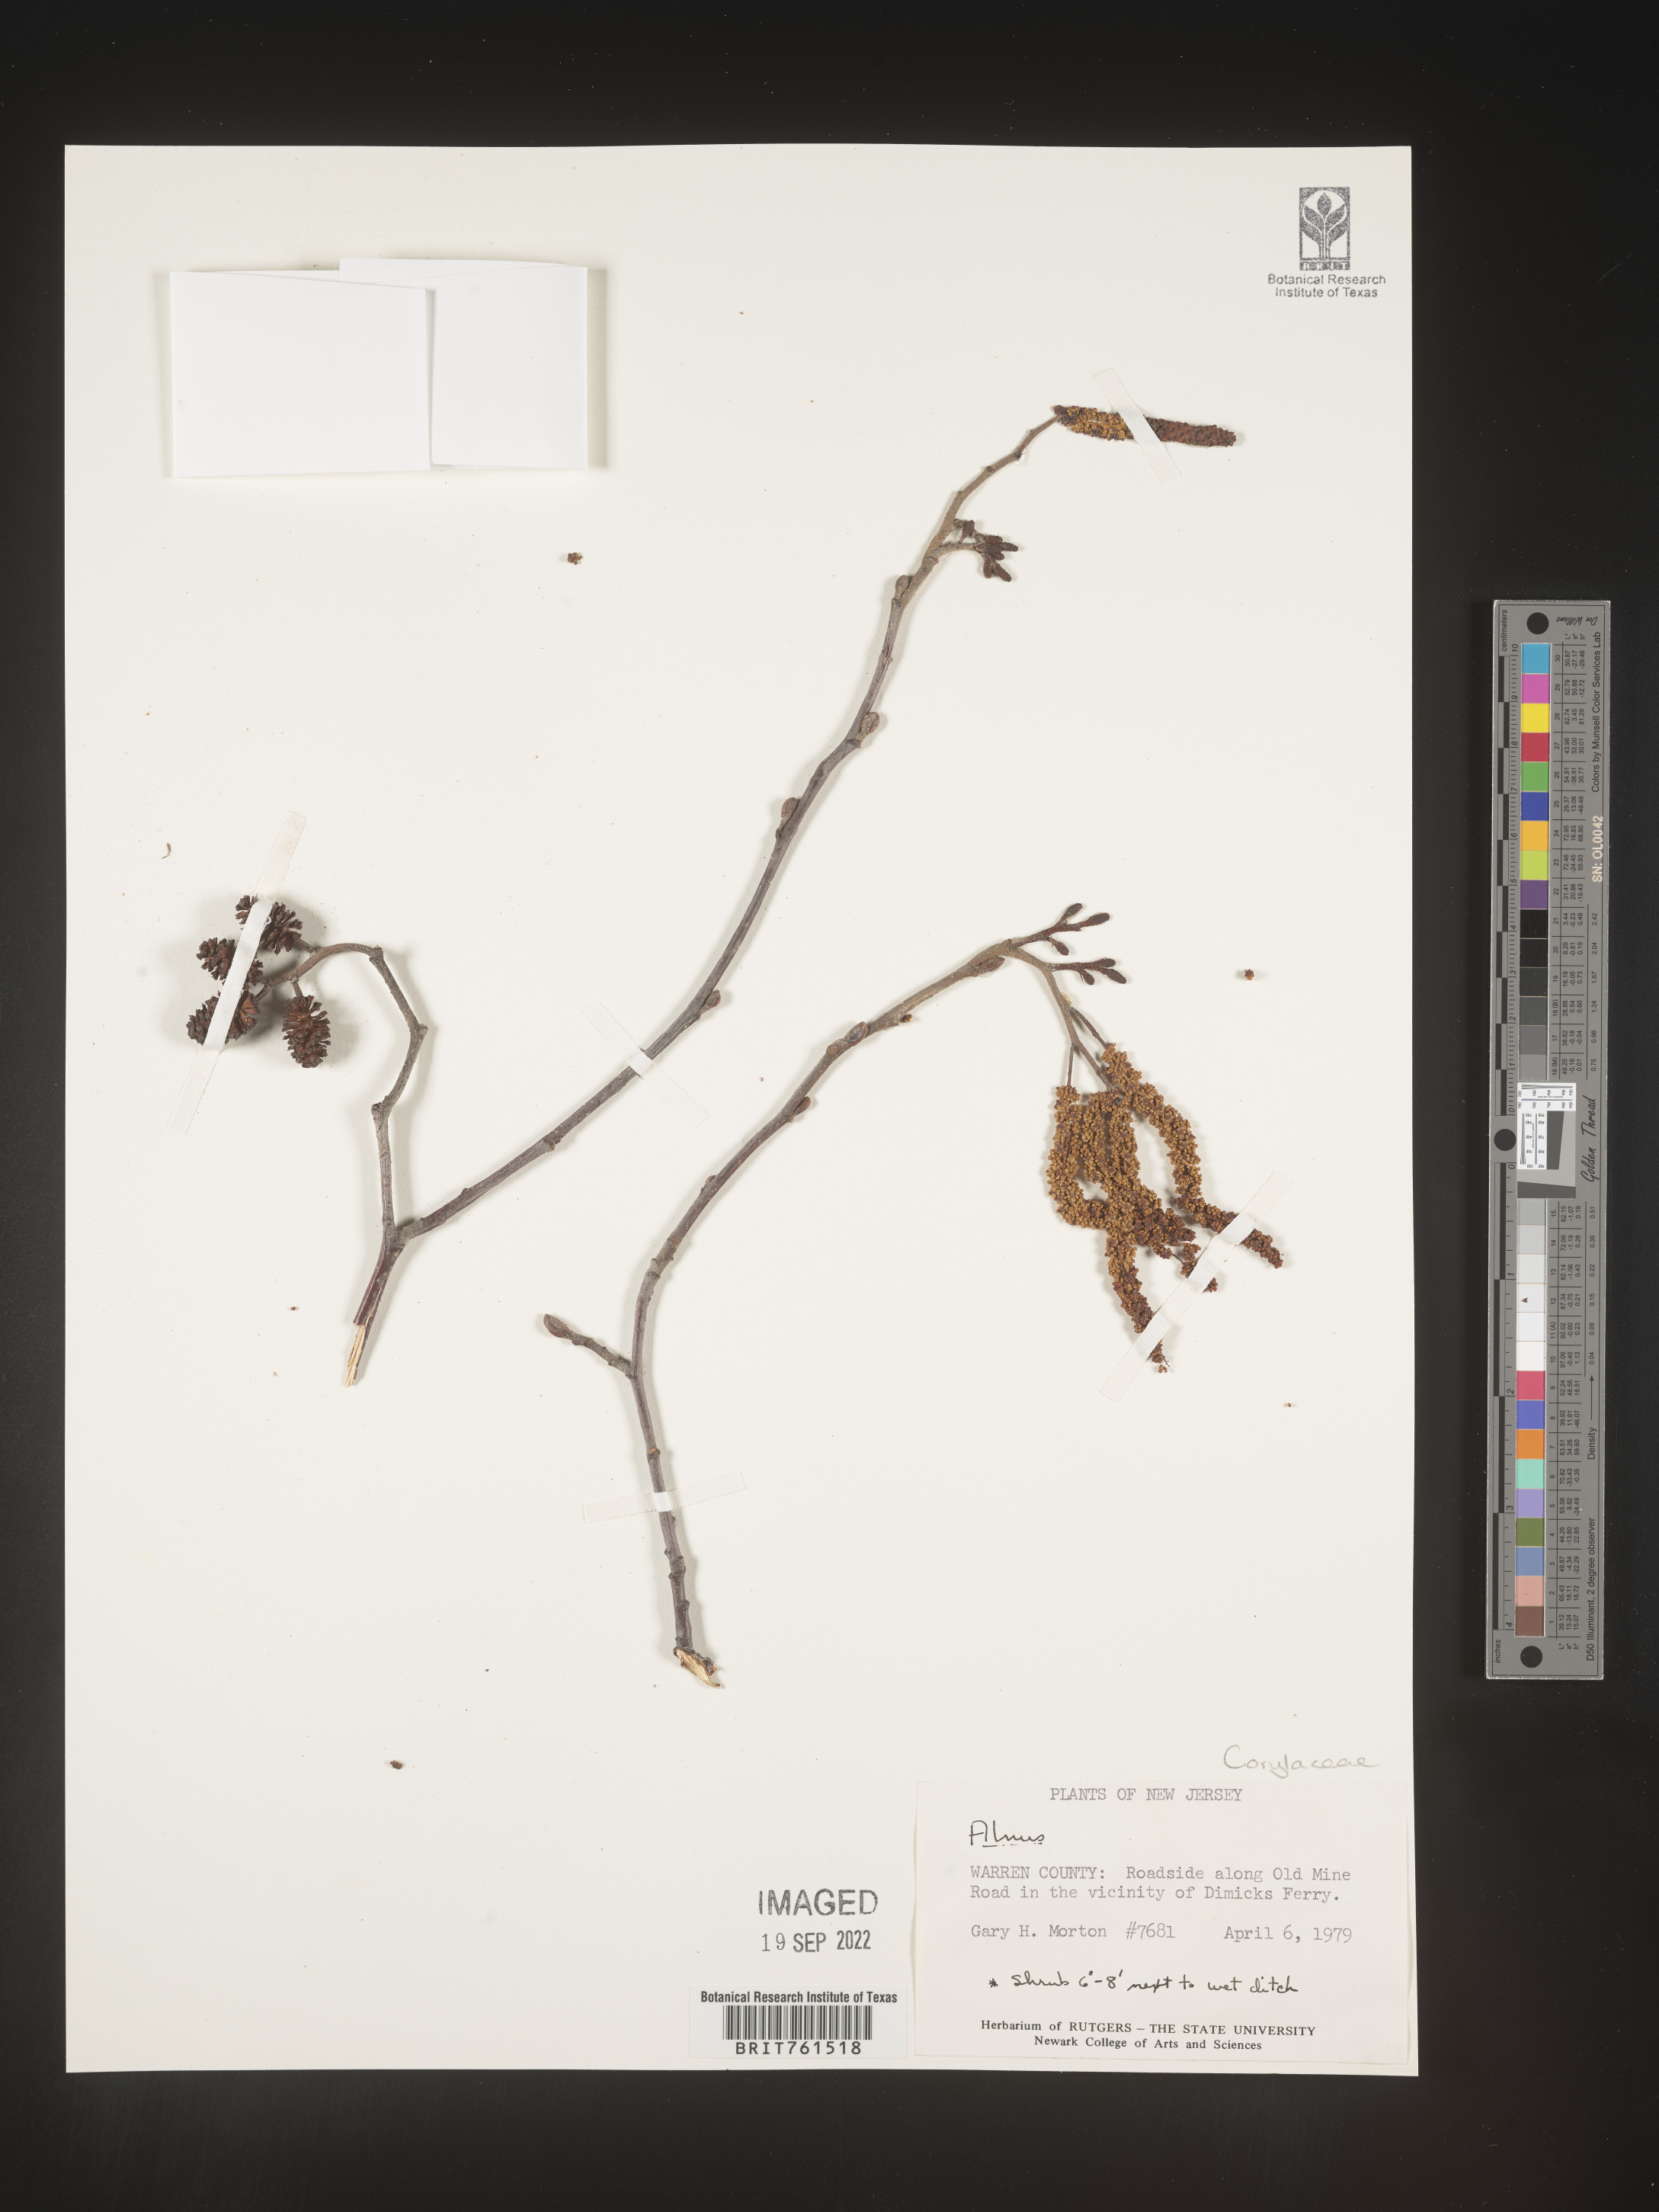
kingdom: Plantae
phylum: Tracheophyta
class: Magnoliopsida
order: Fagales
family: Betulaceae
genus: Alnus
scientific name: Alnus
